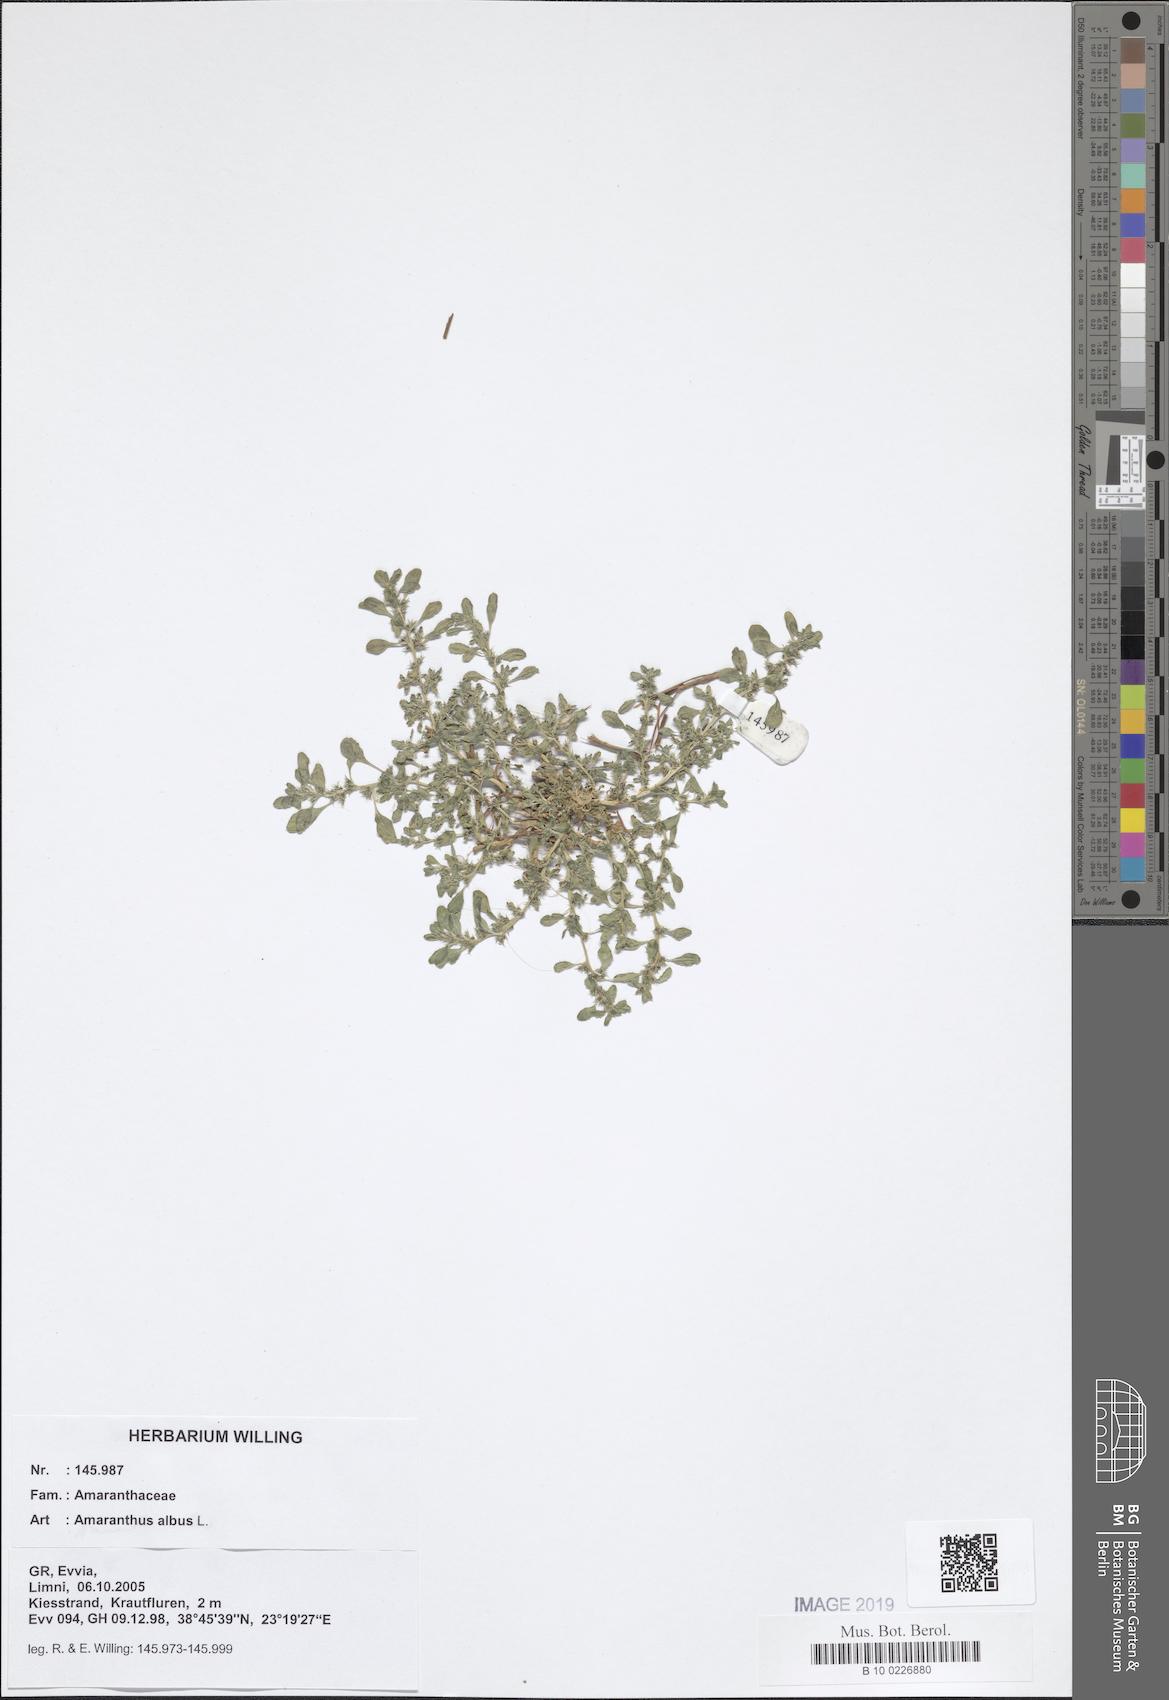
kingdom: Plantae
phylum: Tracheophyta
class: Magnoliopsida
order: Caryophyllales
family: Amaranthaceae
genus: Amaranthus
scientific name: Amaranthus albus
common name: White pigweed
